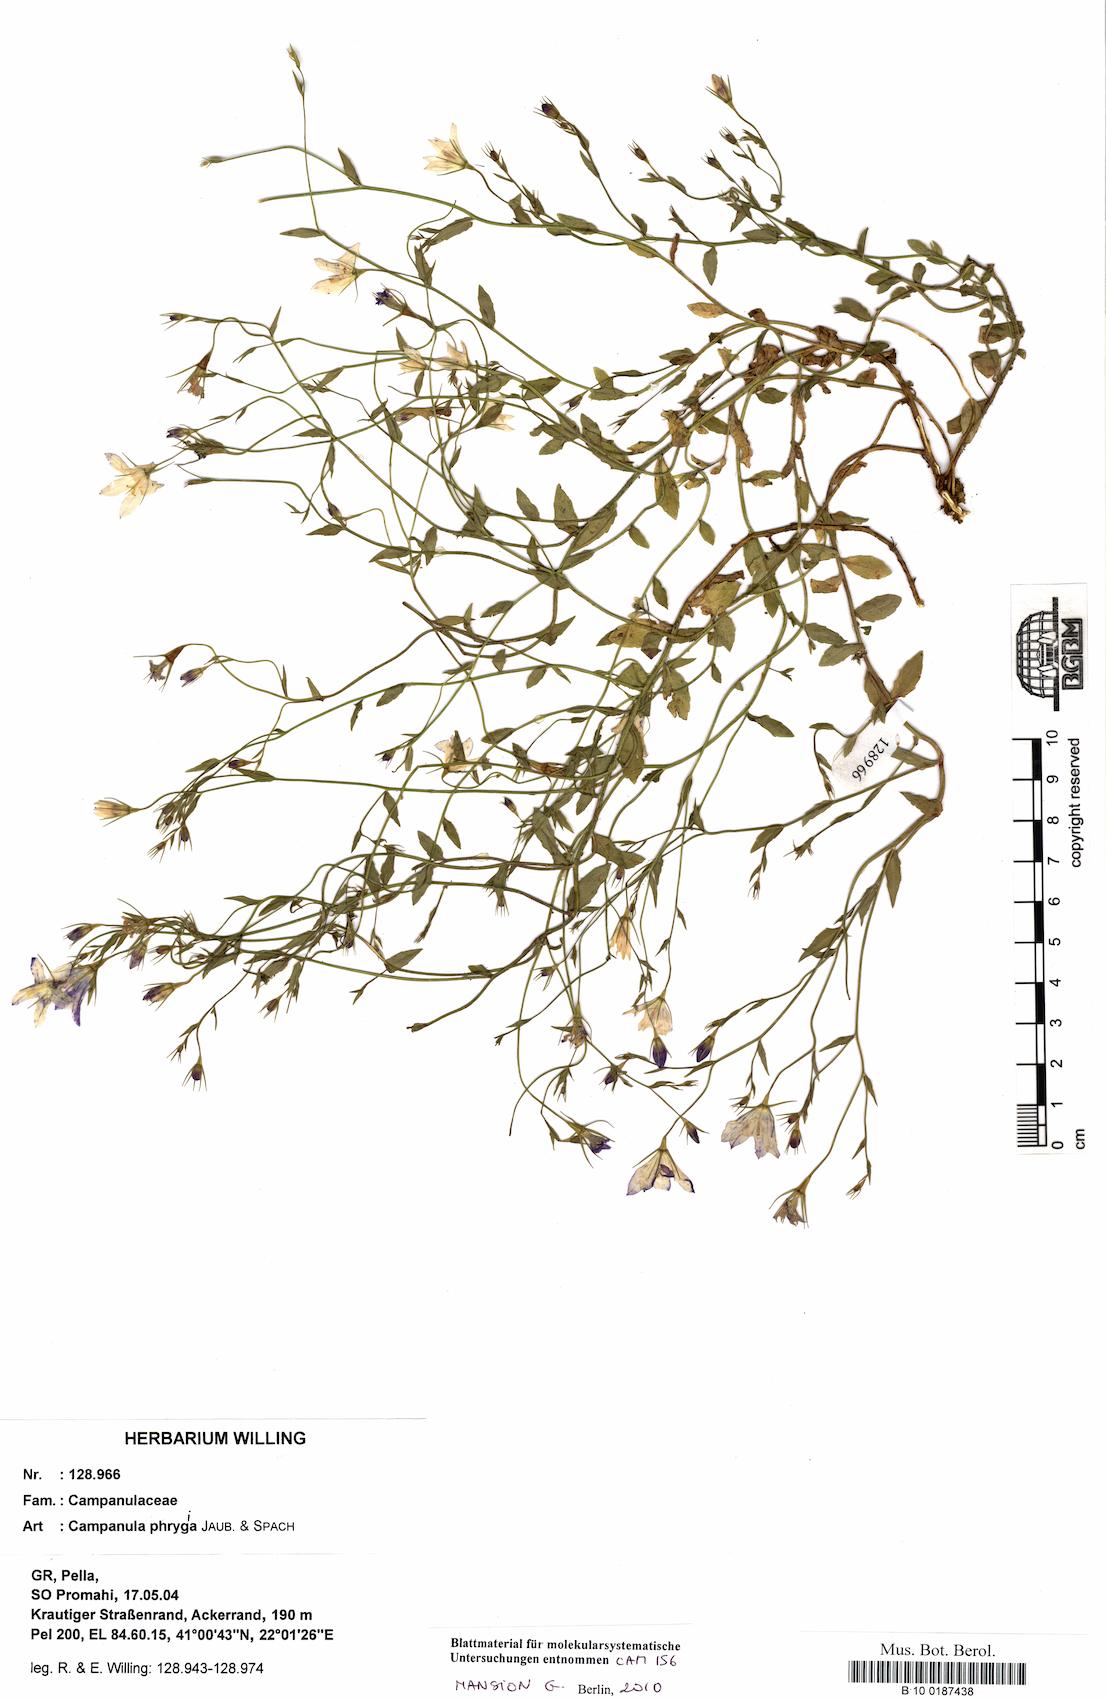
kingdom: Plantae
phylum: Tracheophyta
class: Magnoliopsida
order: Asterales
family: Campanulaceae
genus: Campanula
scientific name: Campanula phrygia
